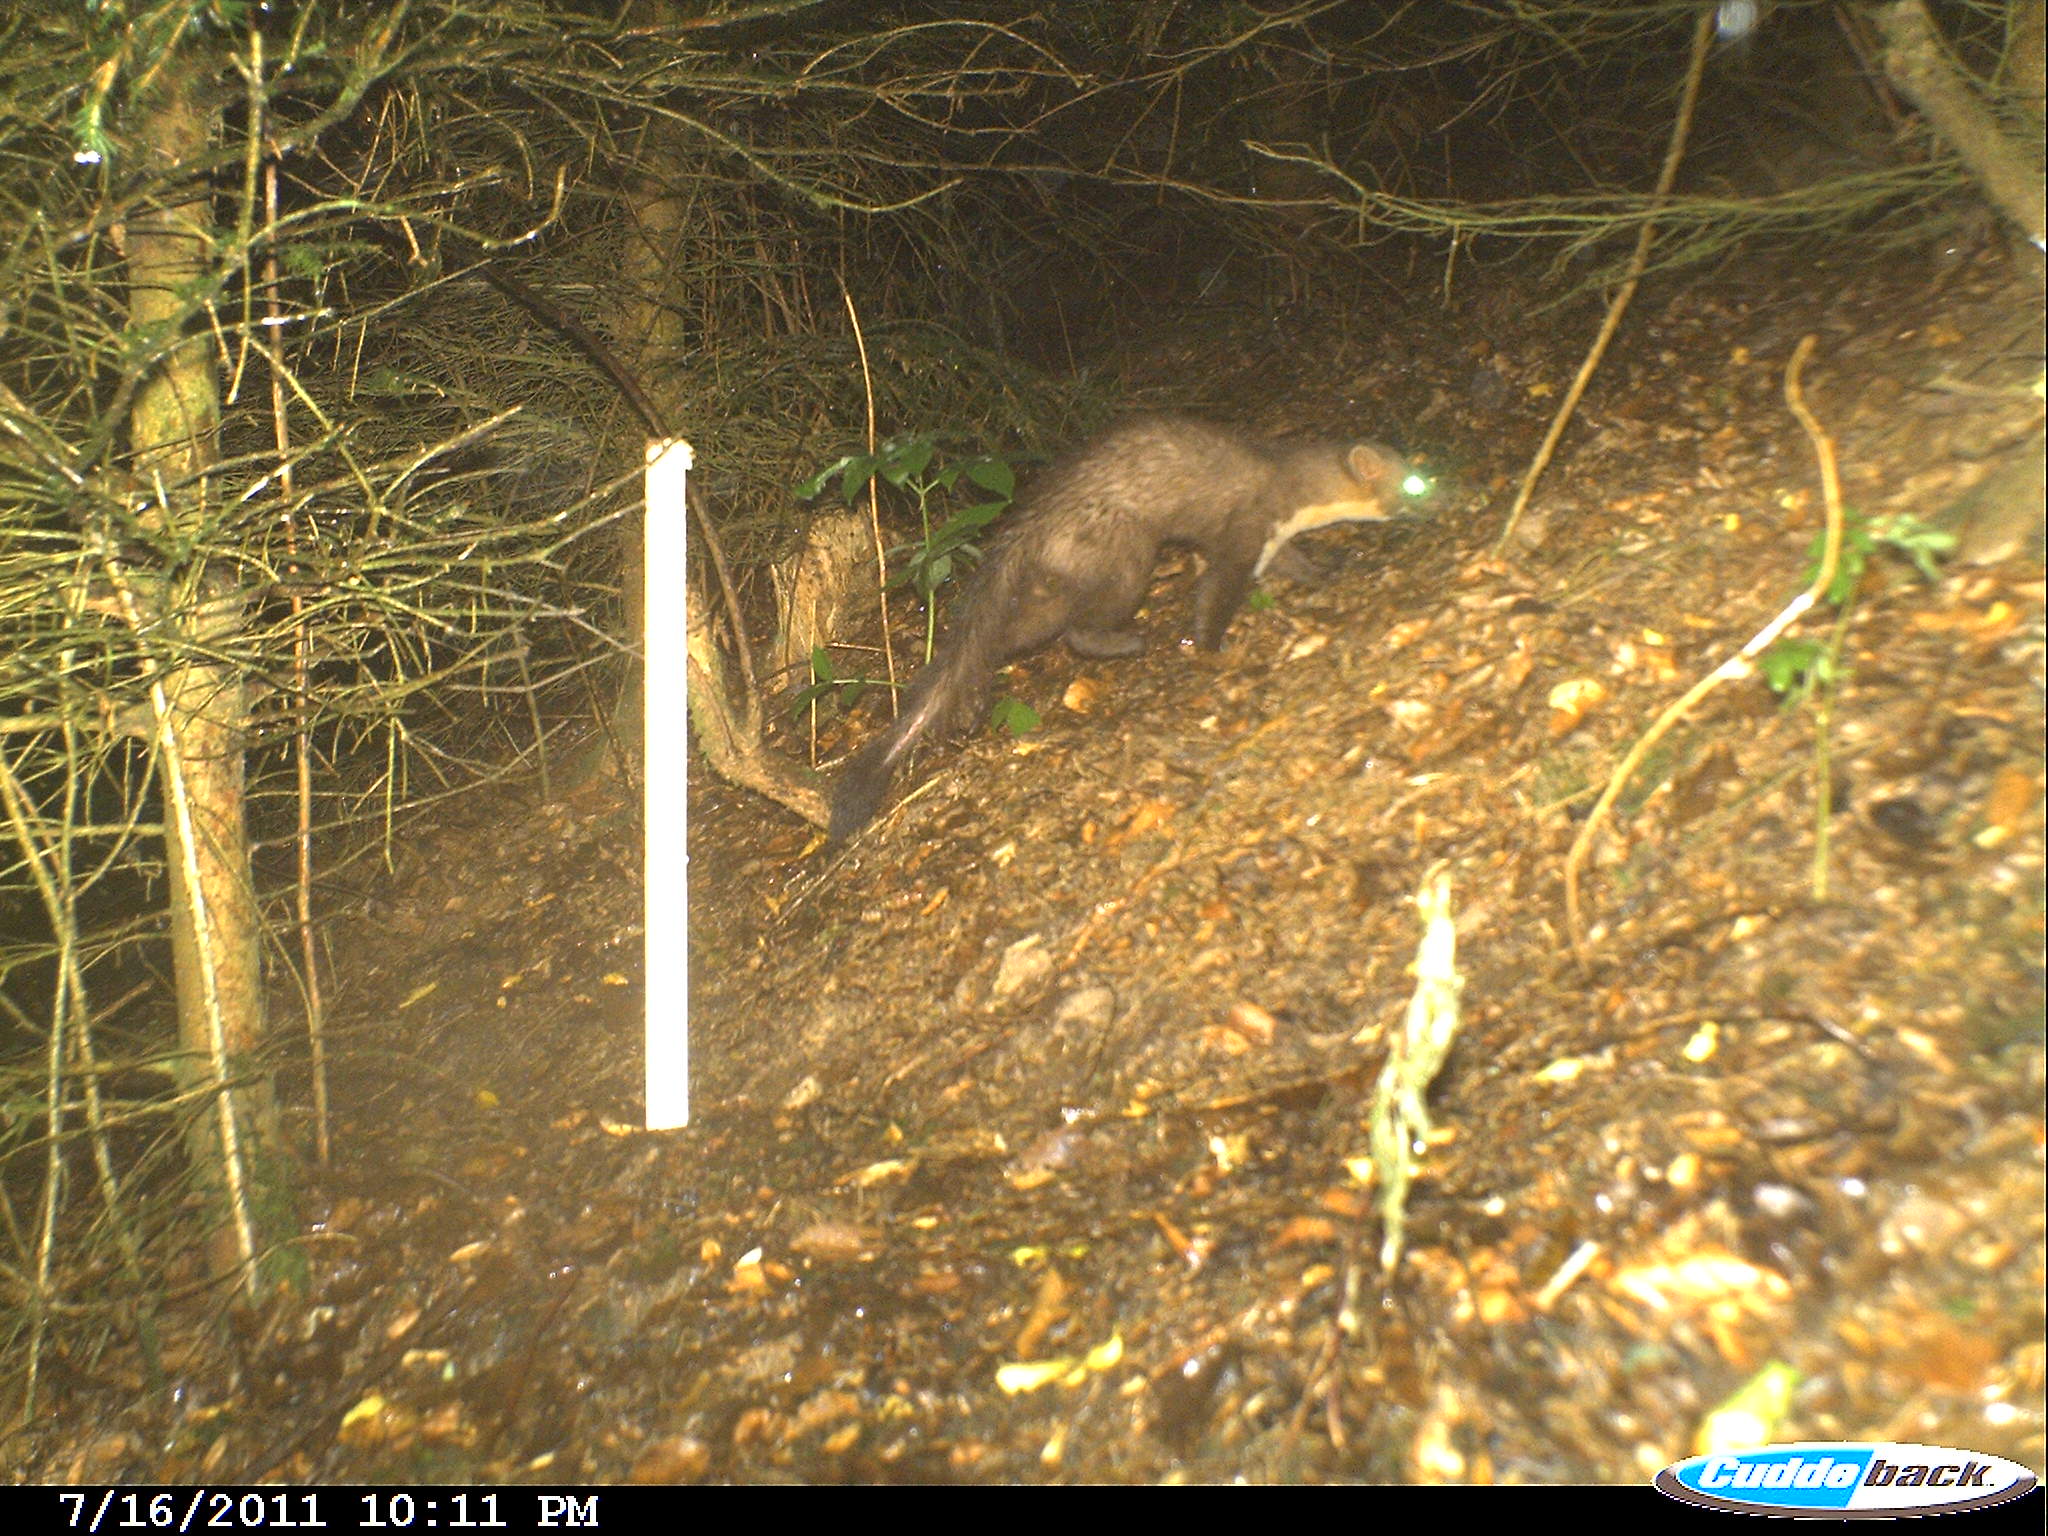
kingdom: Animalia
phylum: Chordata
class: Mammalia
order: Carnivora
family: Mustelidae
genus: Martes
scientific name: Martes foina
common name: Beech marten
